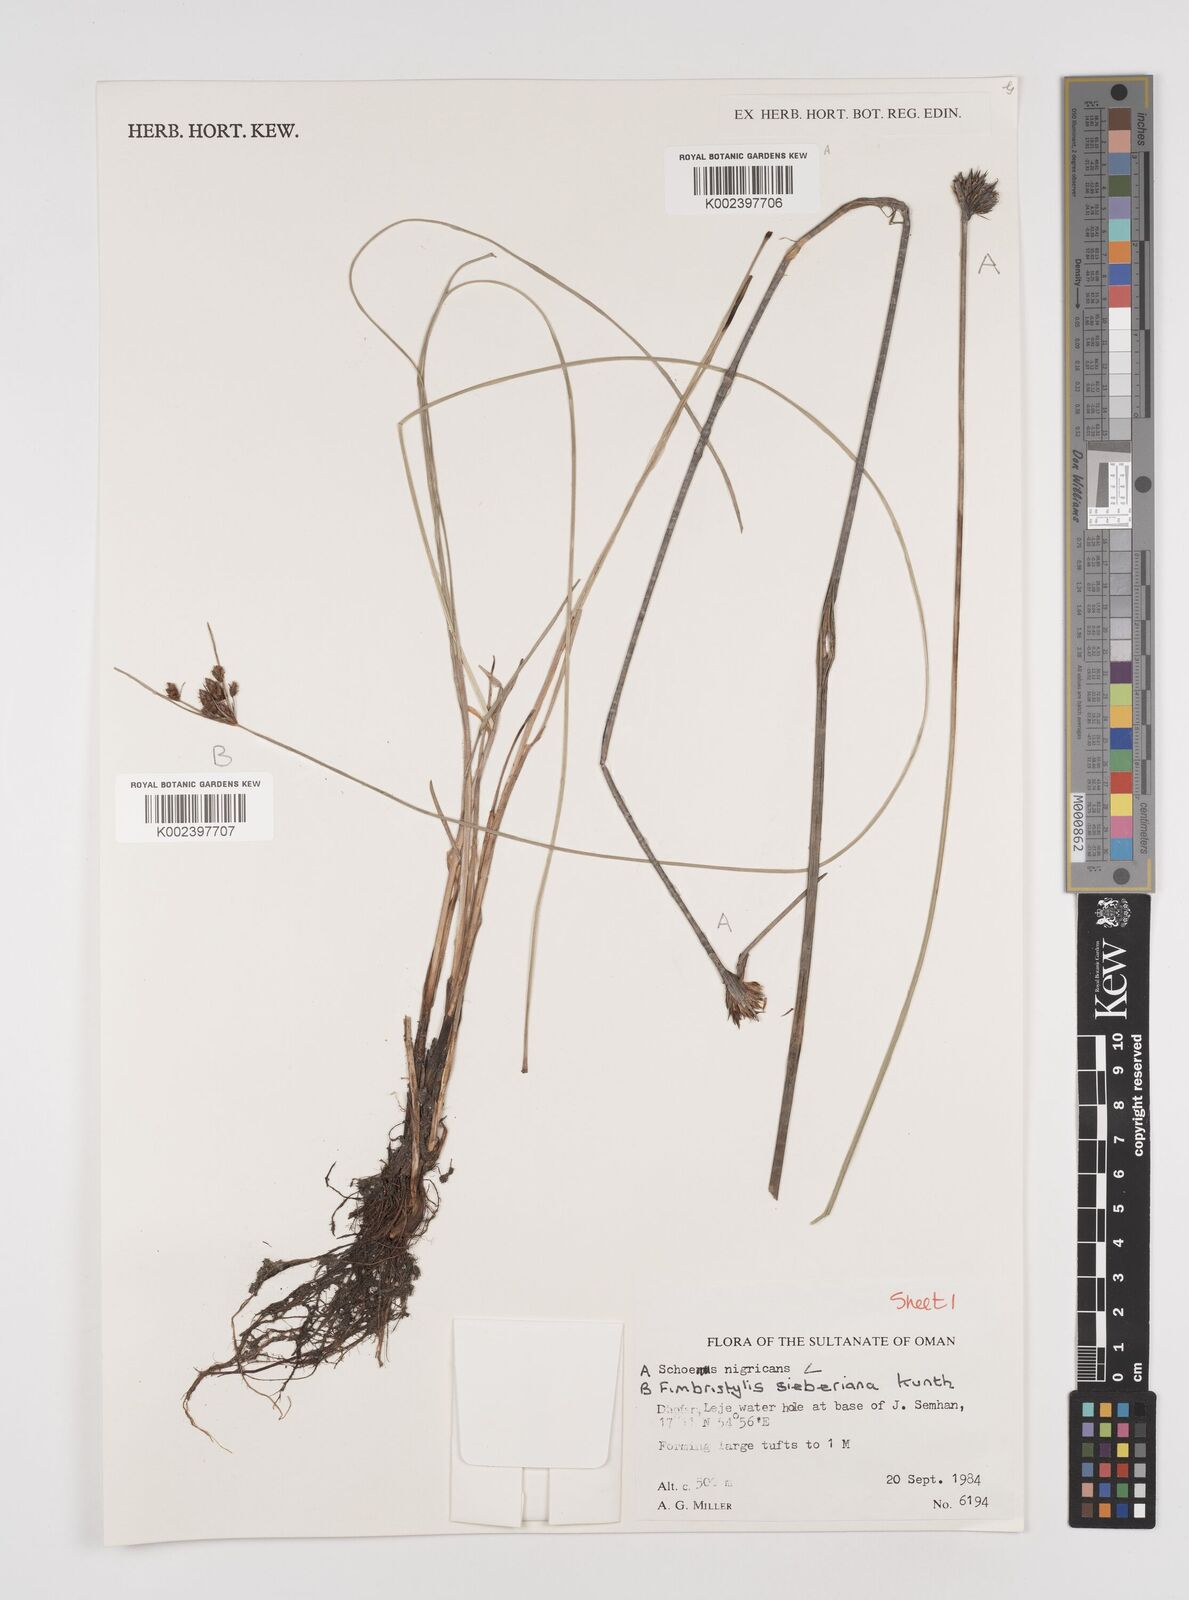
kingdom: Plantae
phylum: Tracheophyta
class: Liliopsida
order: Poales
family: Cyperaceae
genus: Schoenus
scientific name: Schoenus nigricans
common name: Black bog-rush
